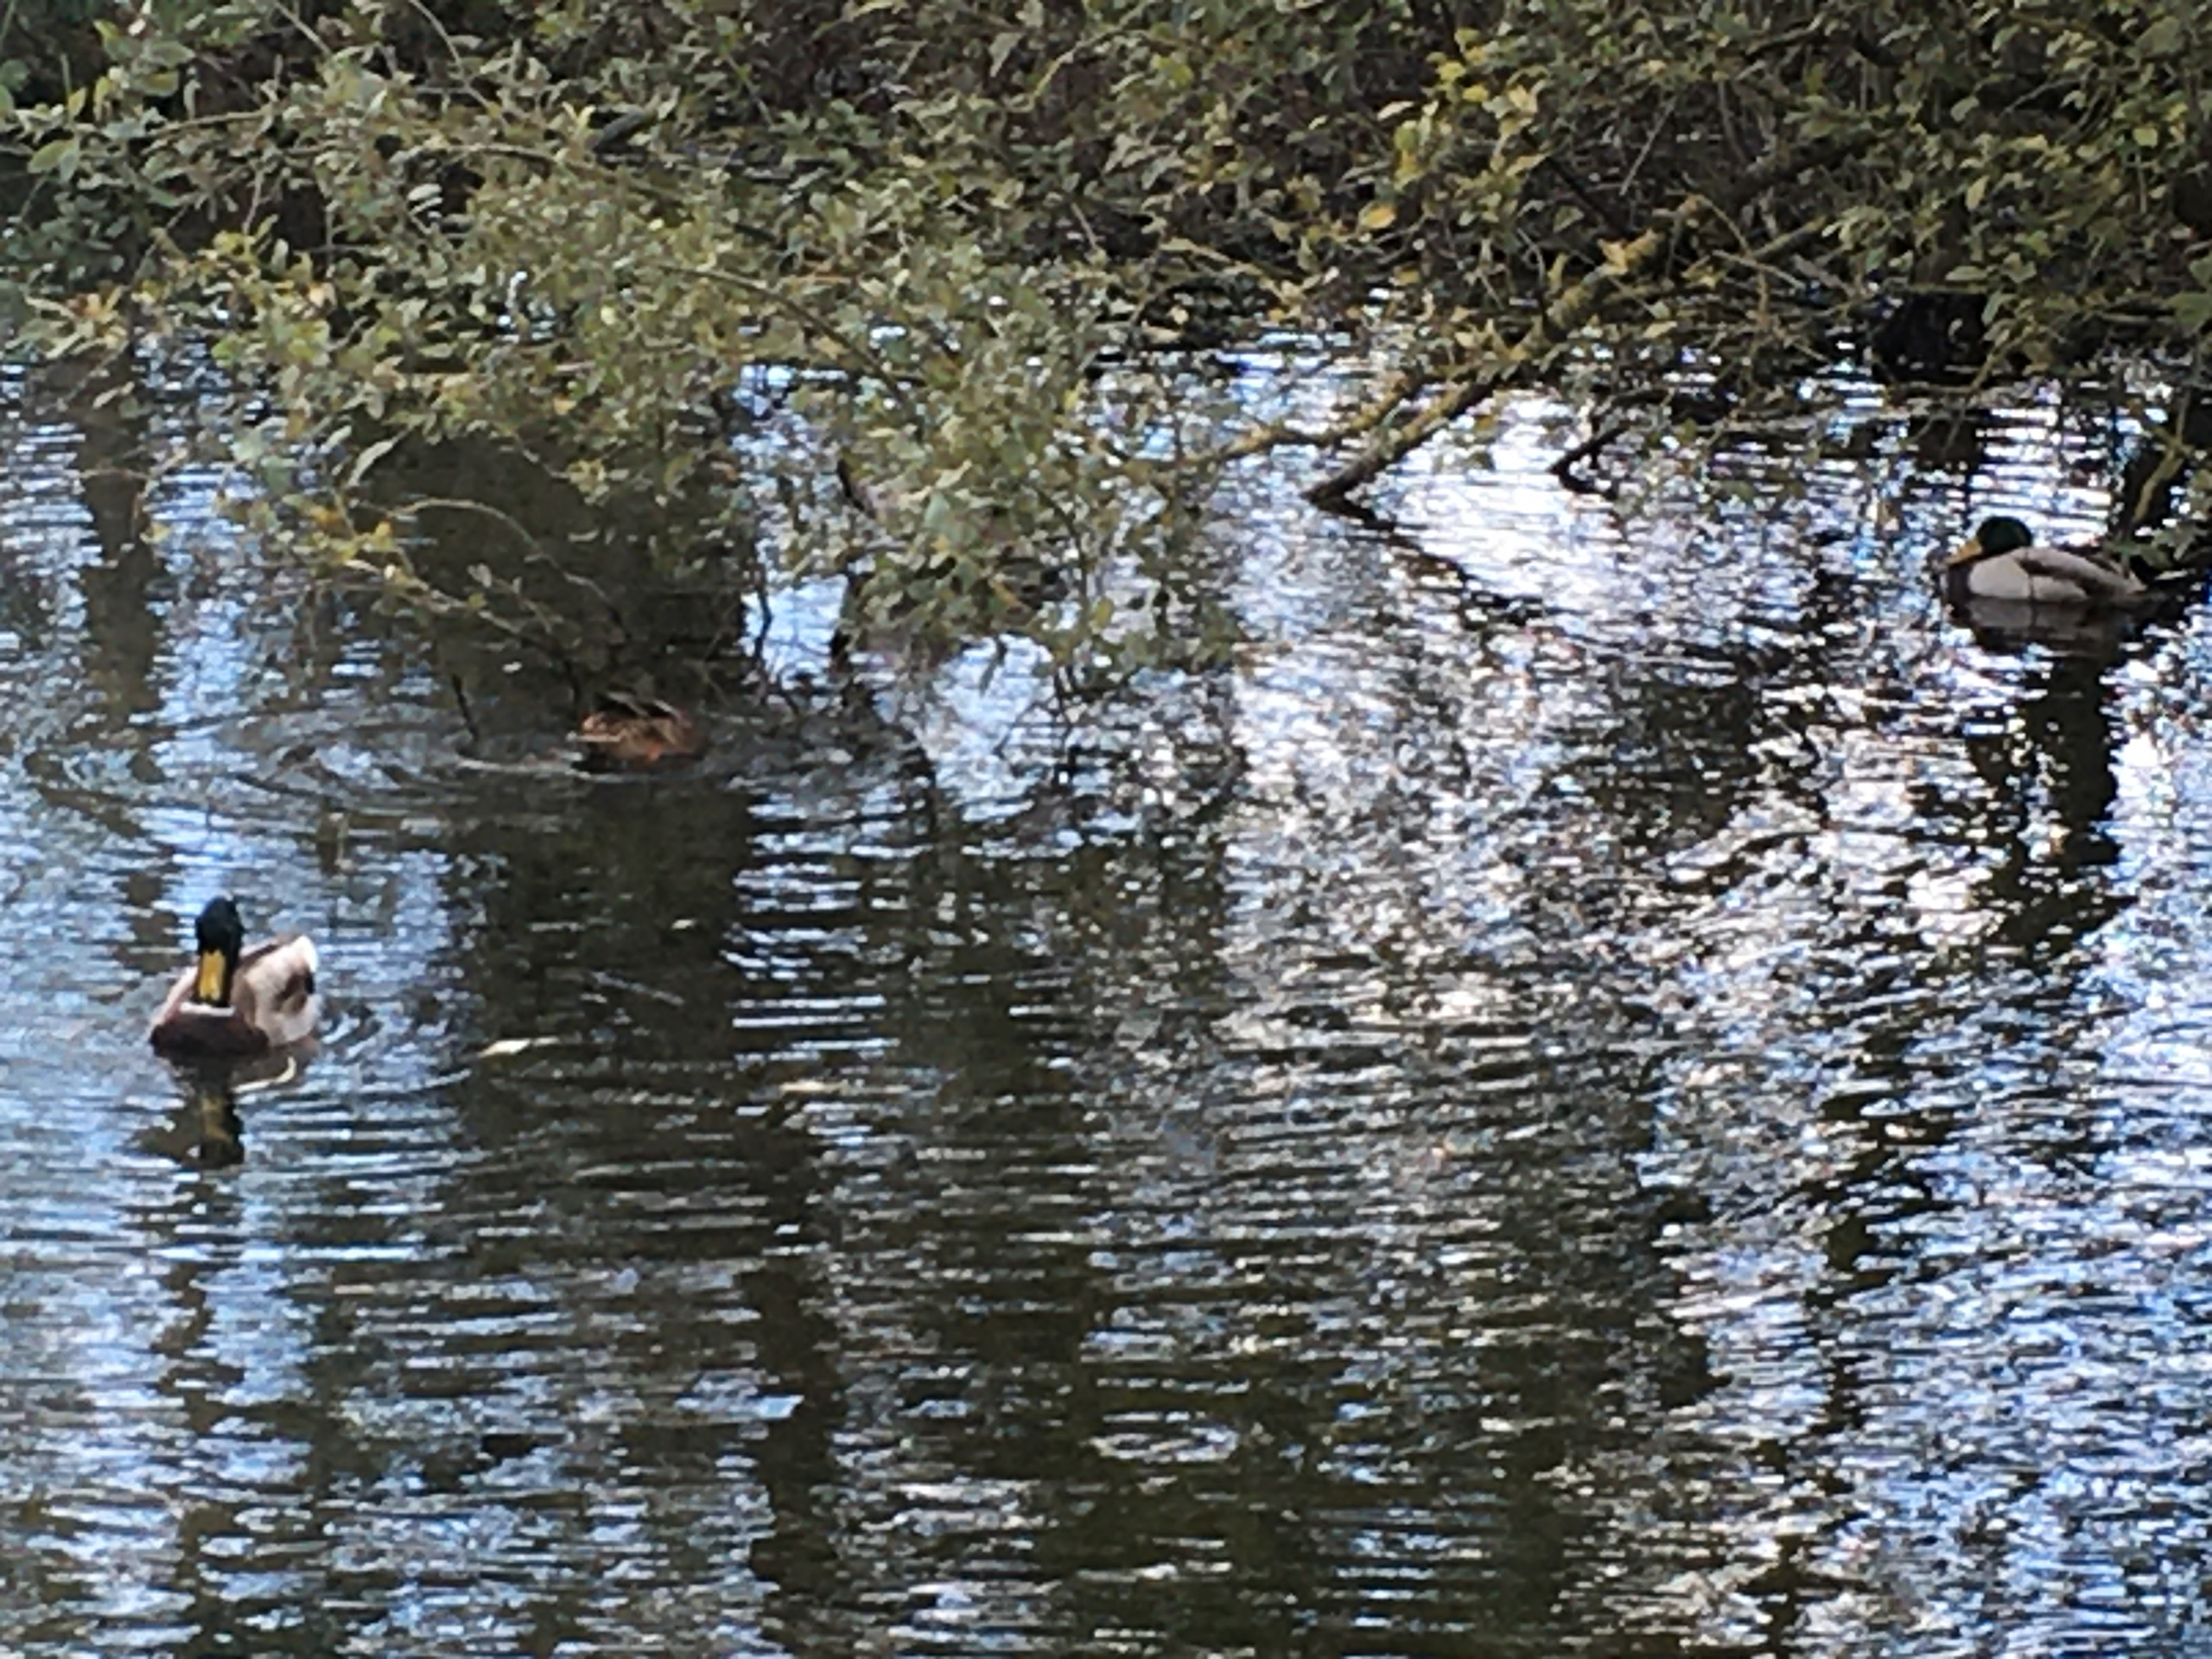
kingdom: Animalia
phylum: Chordata
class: Aves
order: Anseriformes
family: Anatidae
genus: Anas
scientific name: Anas platyrhynchos
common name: Gråand
